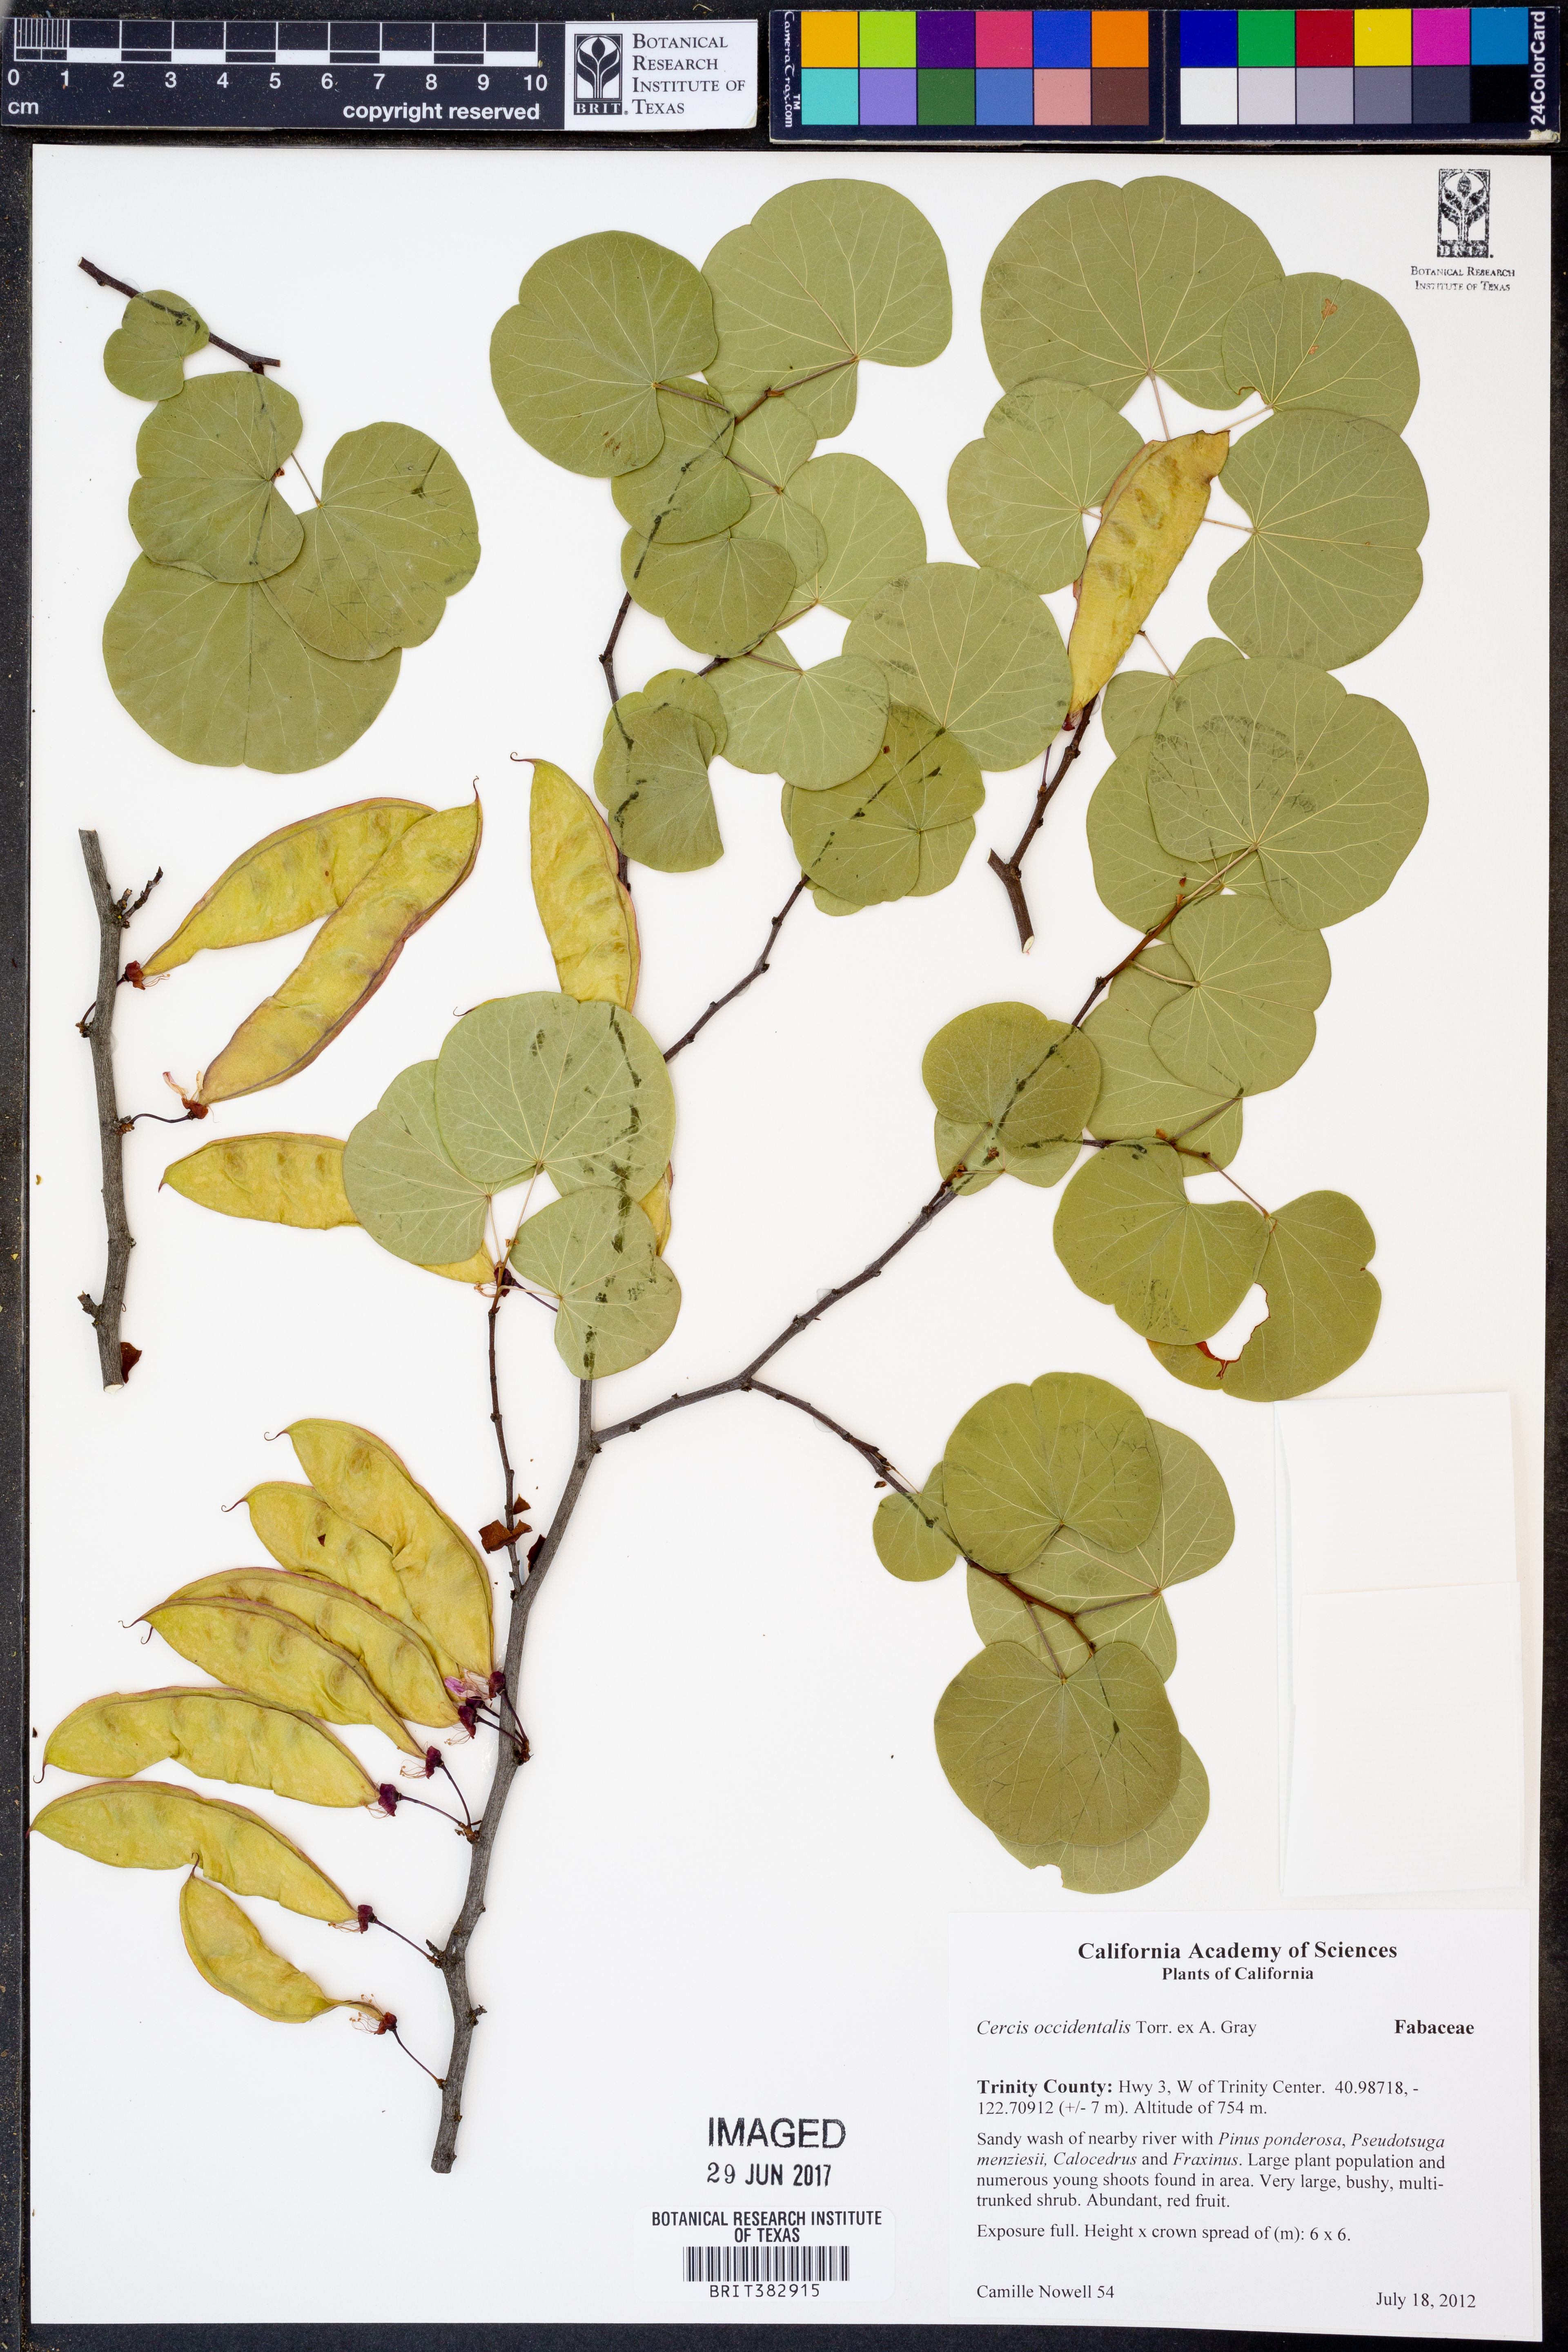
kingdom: Plantae
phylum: Tracheophyta
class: Magnoliopsida
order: Fabales
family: Fabaceae
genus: Cercis
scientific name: Cercis occidentalis
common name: California redbud
